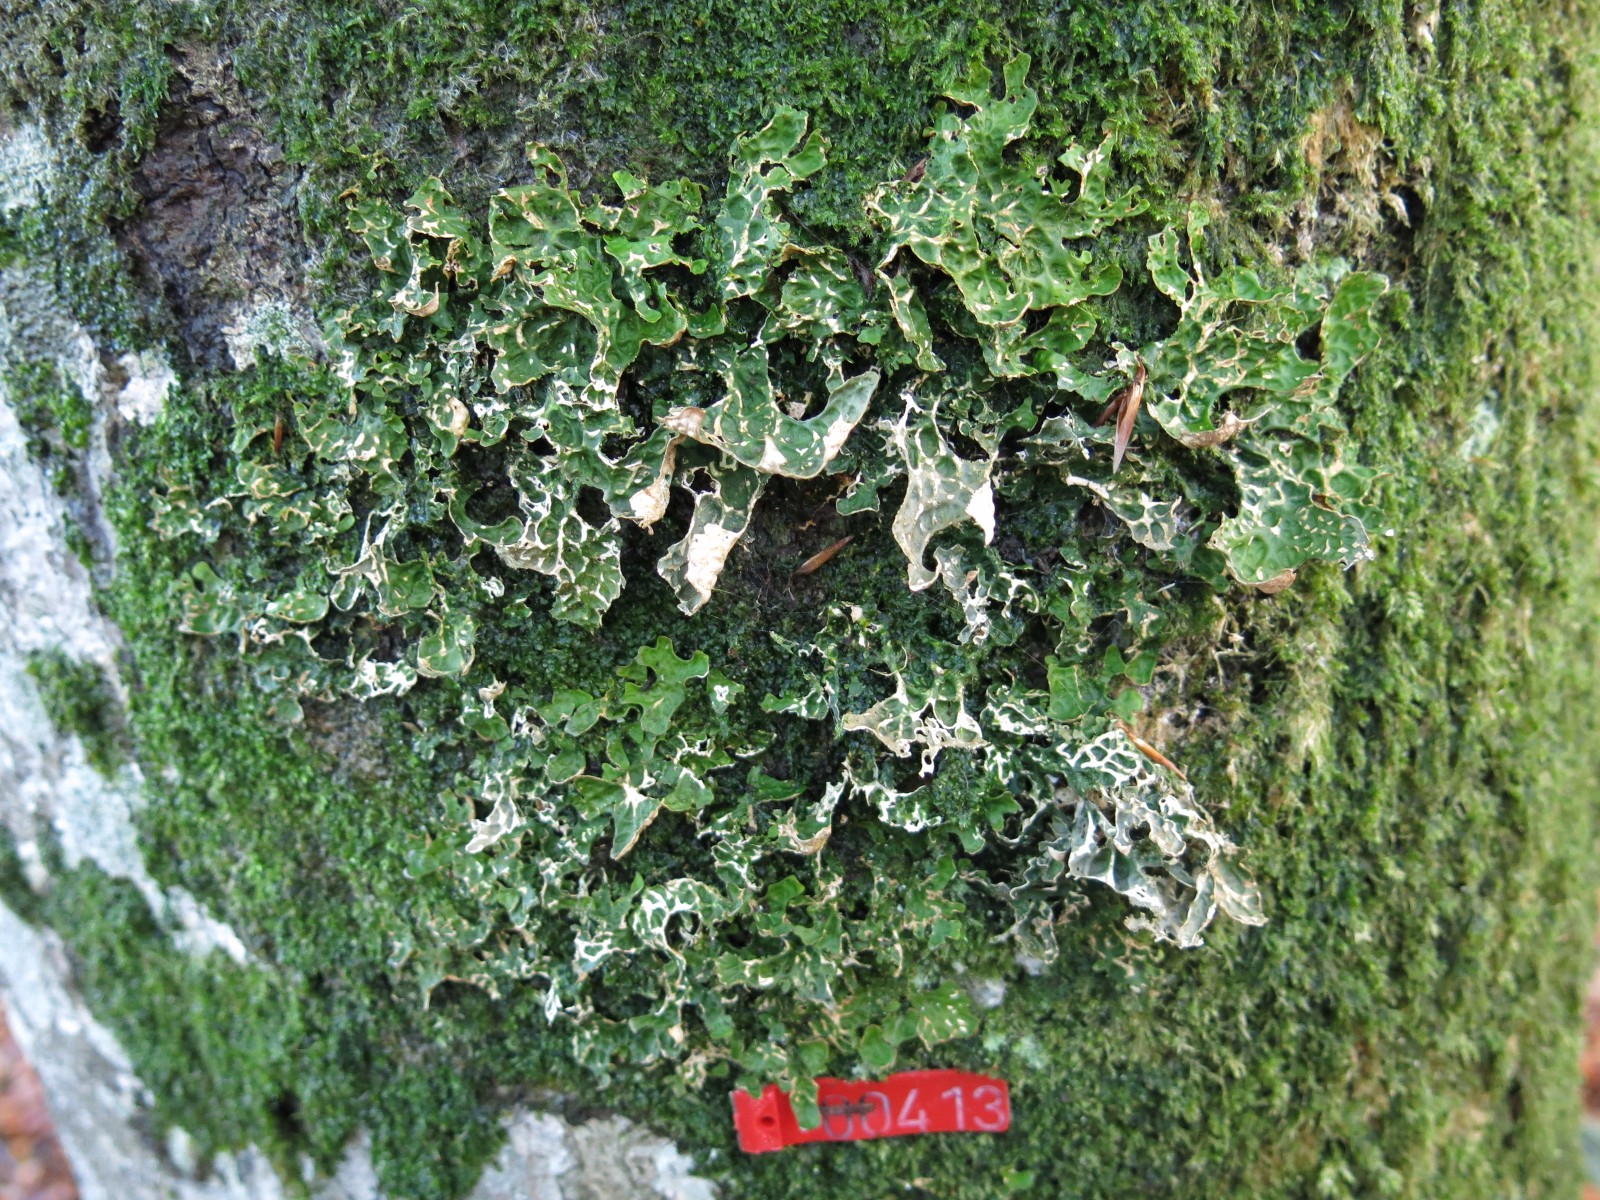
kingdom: Fungi
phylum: Ascomycota
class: Lecanoromycetes
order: Peltigerales
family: Lobariaceae
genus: Lobaria
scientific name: Lobaria pulmonaria
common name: almindelig lungelav
